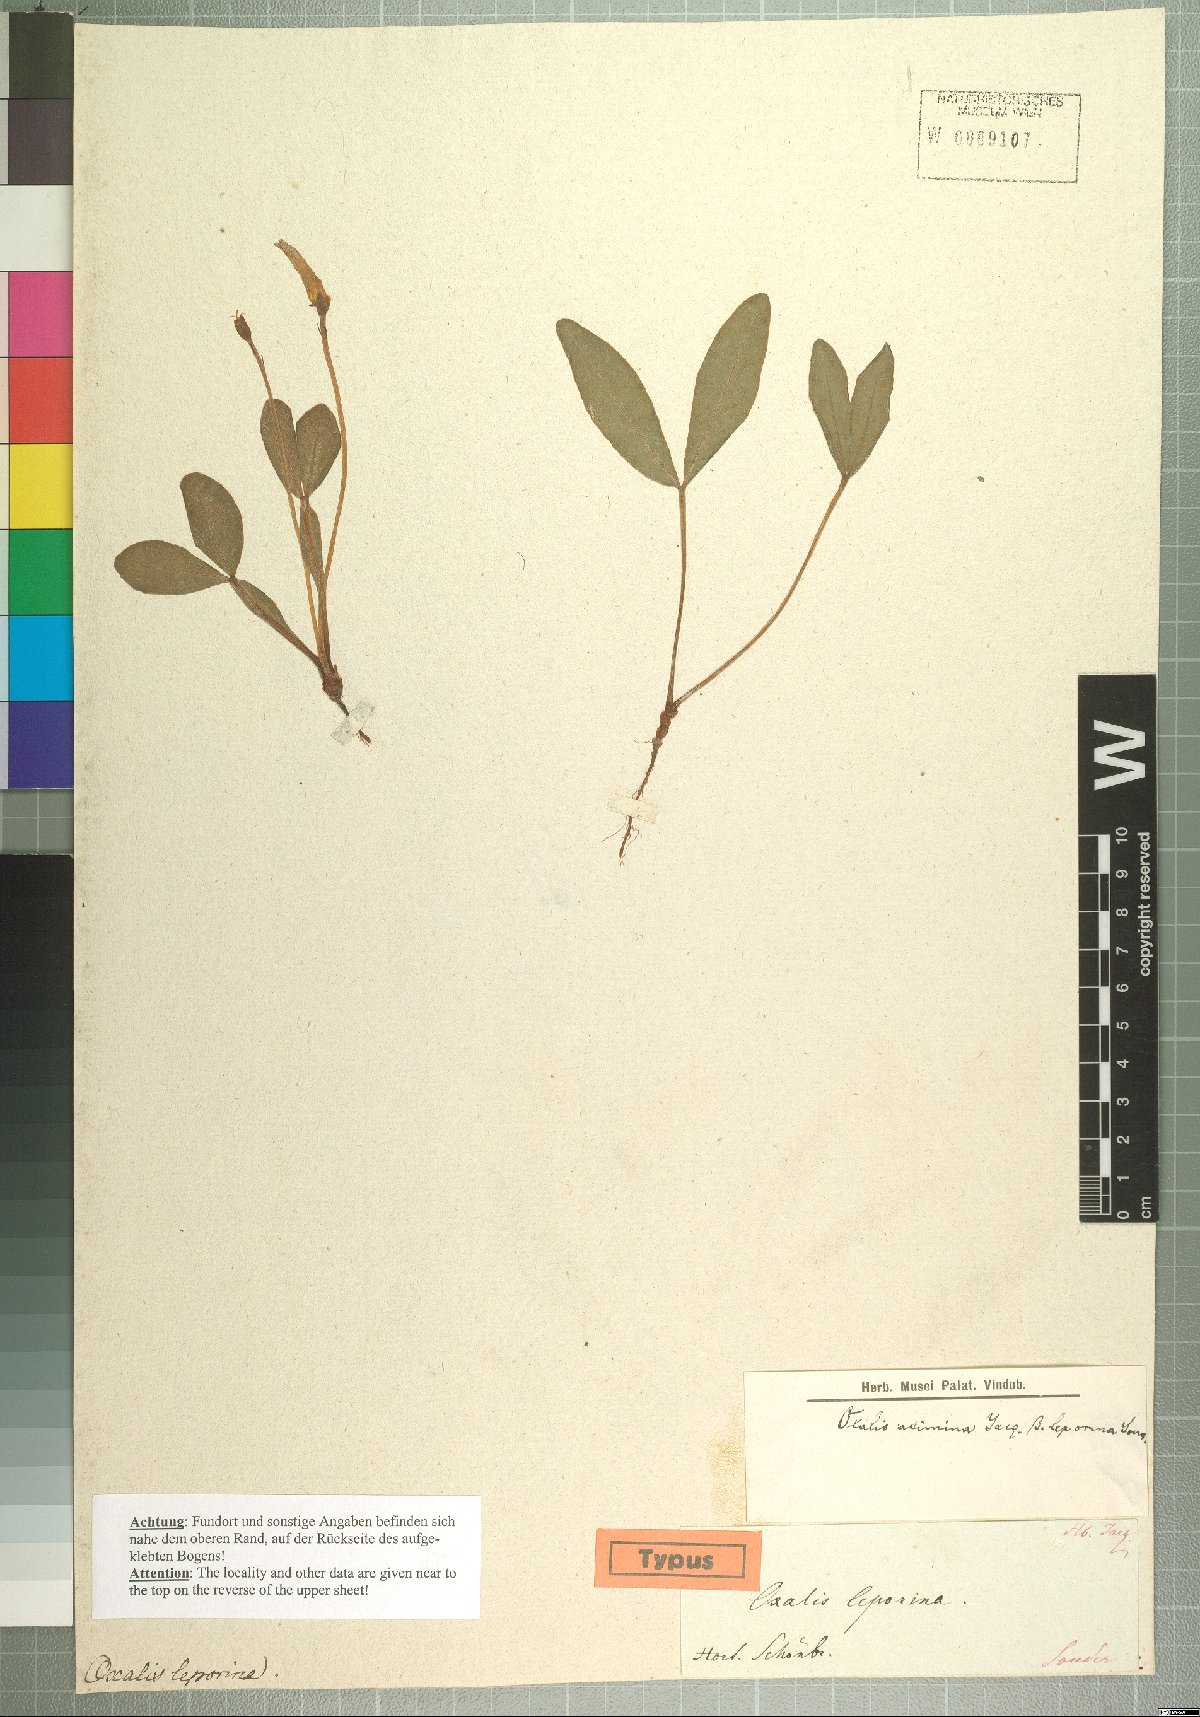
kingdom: Plantae
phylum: Tracheophyta
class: Magnoliopsida
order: Oxalidales
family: Oxalidaceae
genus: Oxalis
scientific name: Oxalis flava
